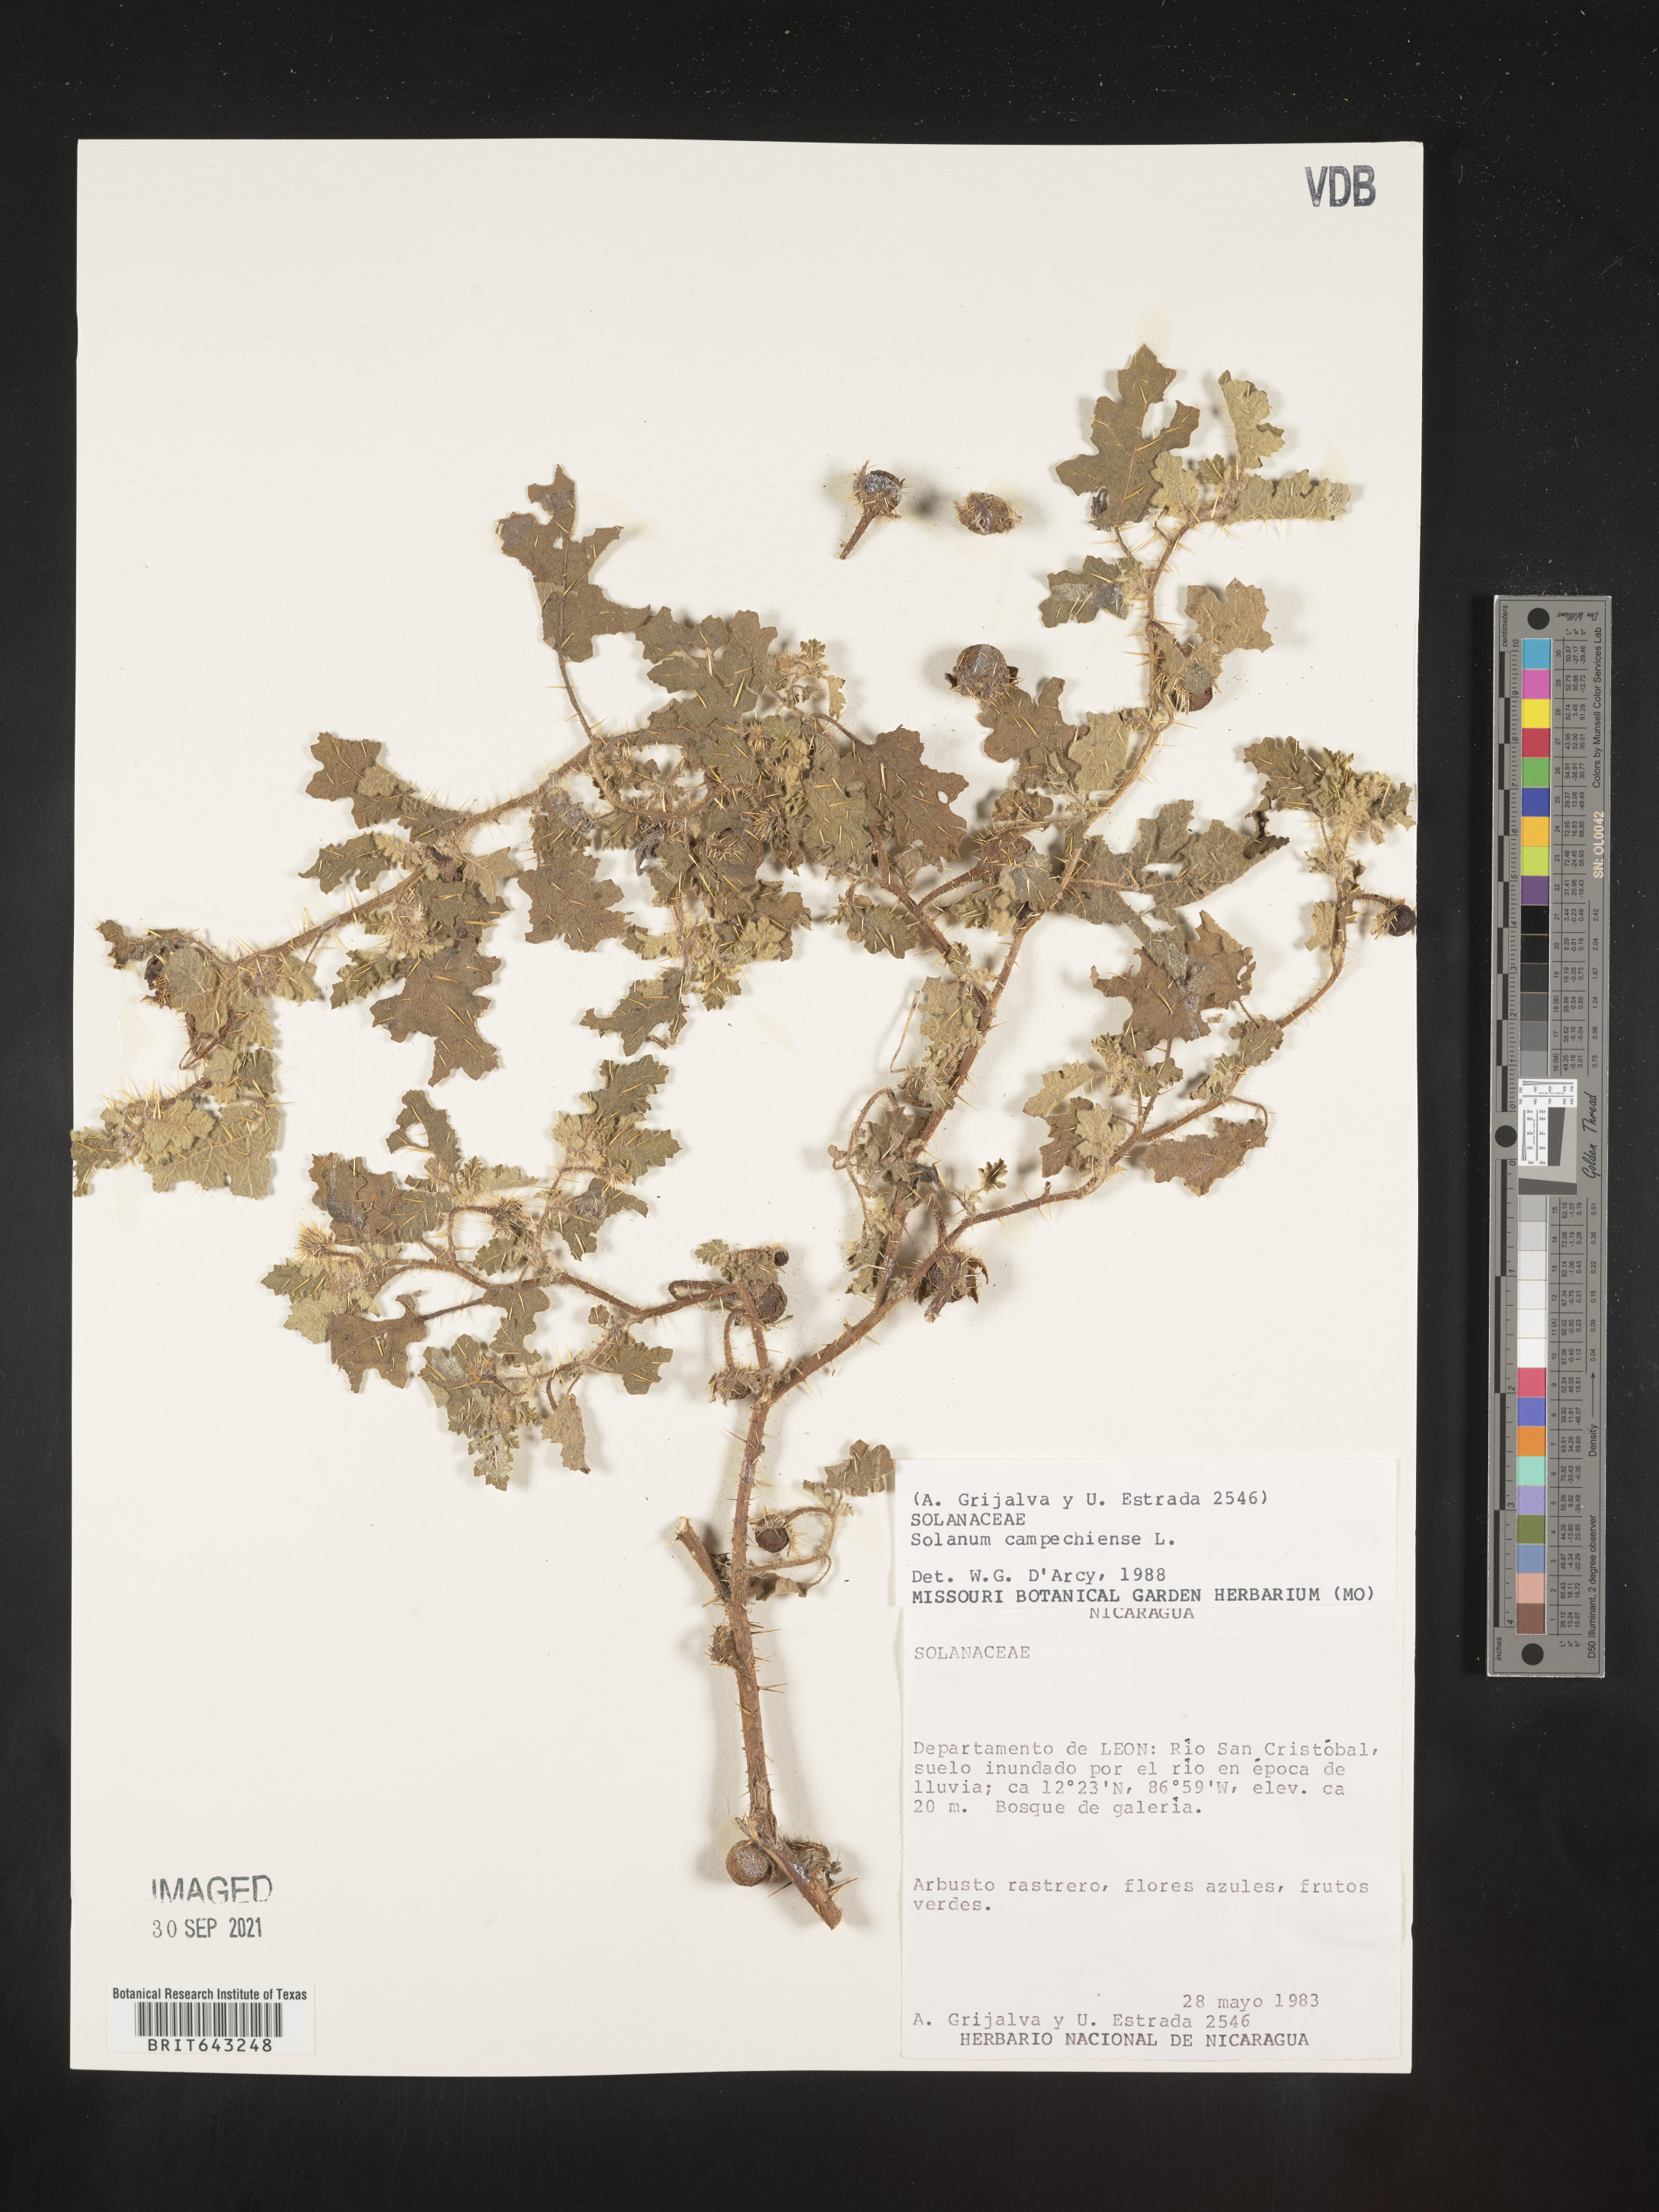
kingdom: Plantae
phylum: Tracheophyta
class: Magnoliopsida
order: Solanales
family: Solanaceae
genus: Solanum
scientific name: Solanum
